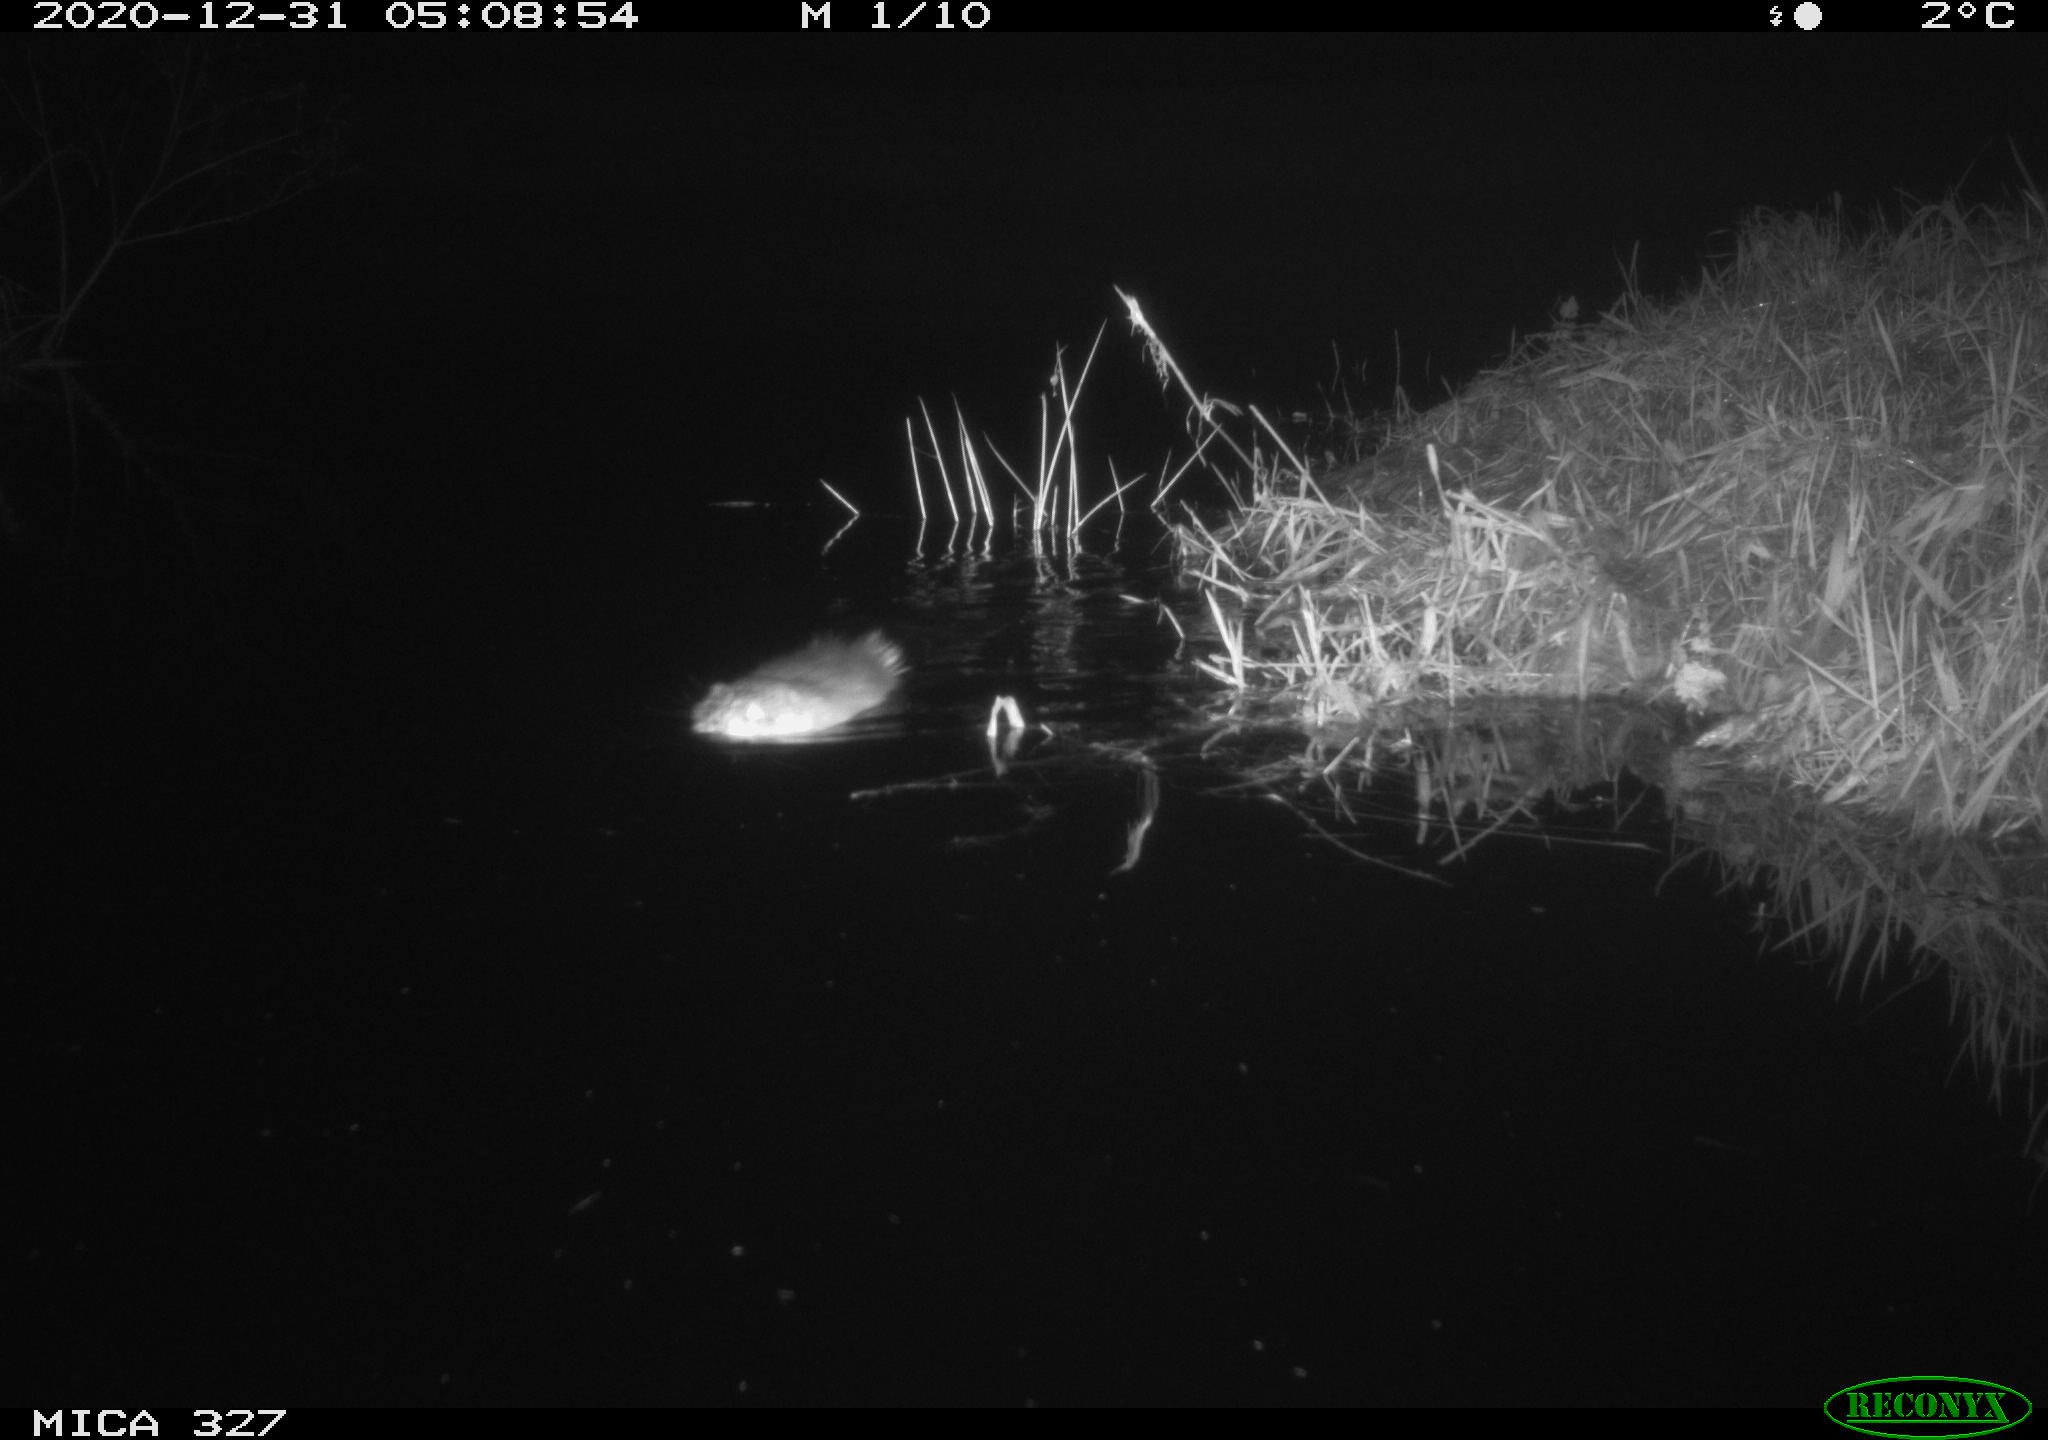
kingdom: Animalia
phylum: Chordata
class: Mammalia
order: Rodentia
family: Cricetidae
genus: Ondatra
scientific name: Ondatra zibethicus
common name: Muskrat
